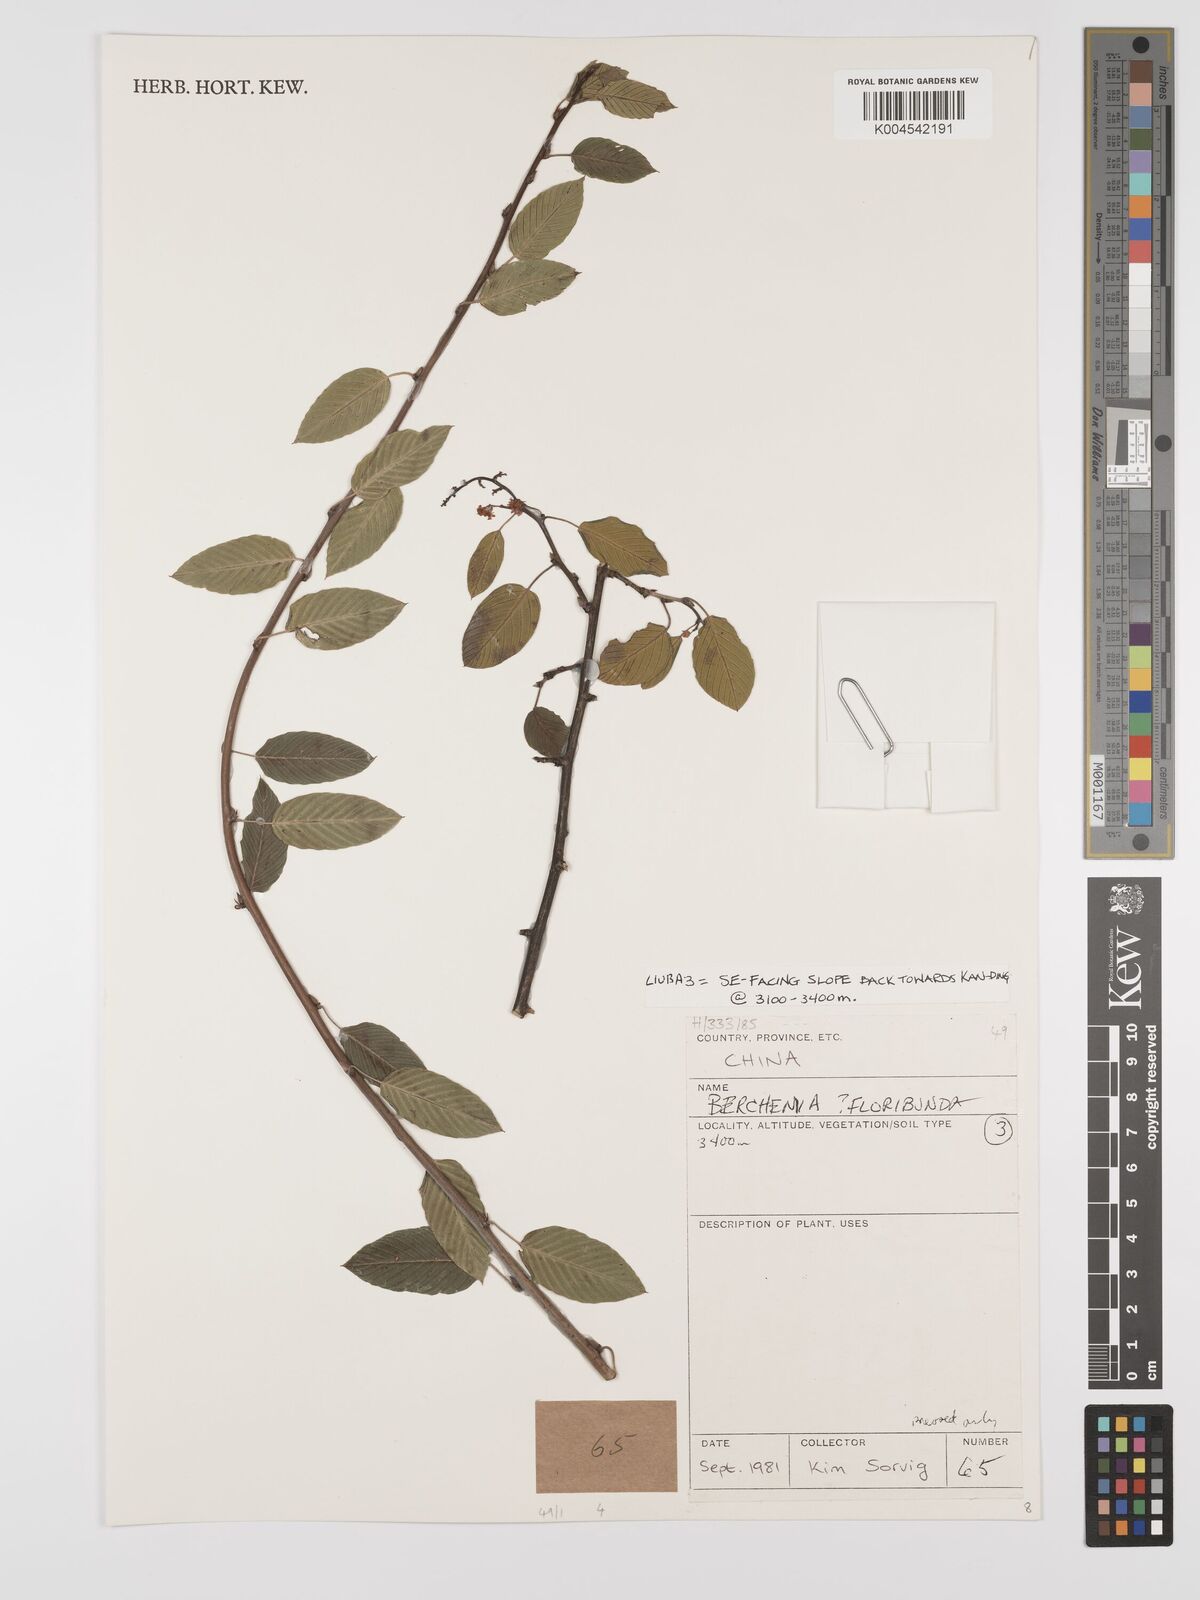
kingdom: Plantae
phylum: Tracheophyta
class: Magnoliopsida
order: Rosales
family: Rhamnaceae
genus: Berchemia
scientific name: Berchemia floribunda
